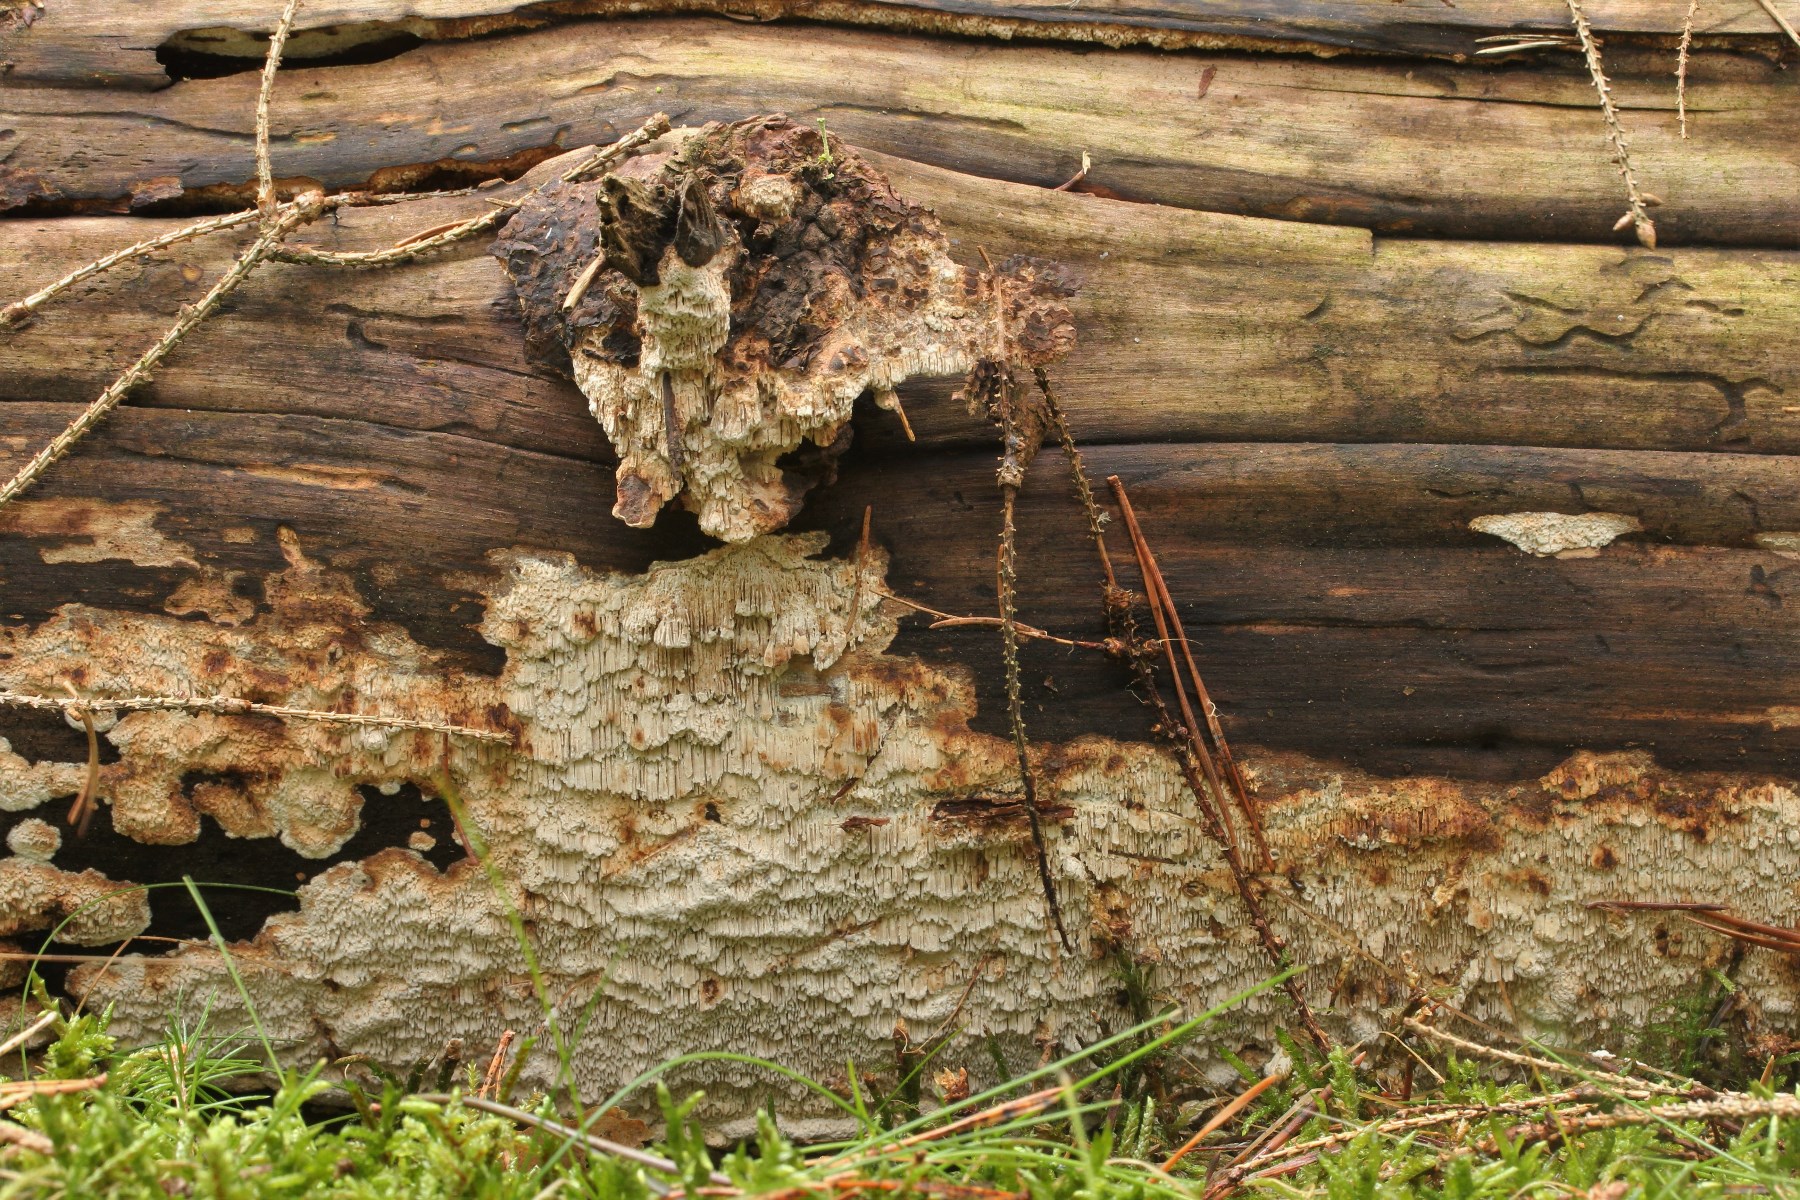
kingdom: Fungi
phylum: Basidiomycota
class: Agaricomycetes
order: Polyporales
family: Fomitopsidaceae
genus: Antrodia
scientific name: Antrodia sinuosa
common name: tømmer-sejporesvamp
